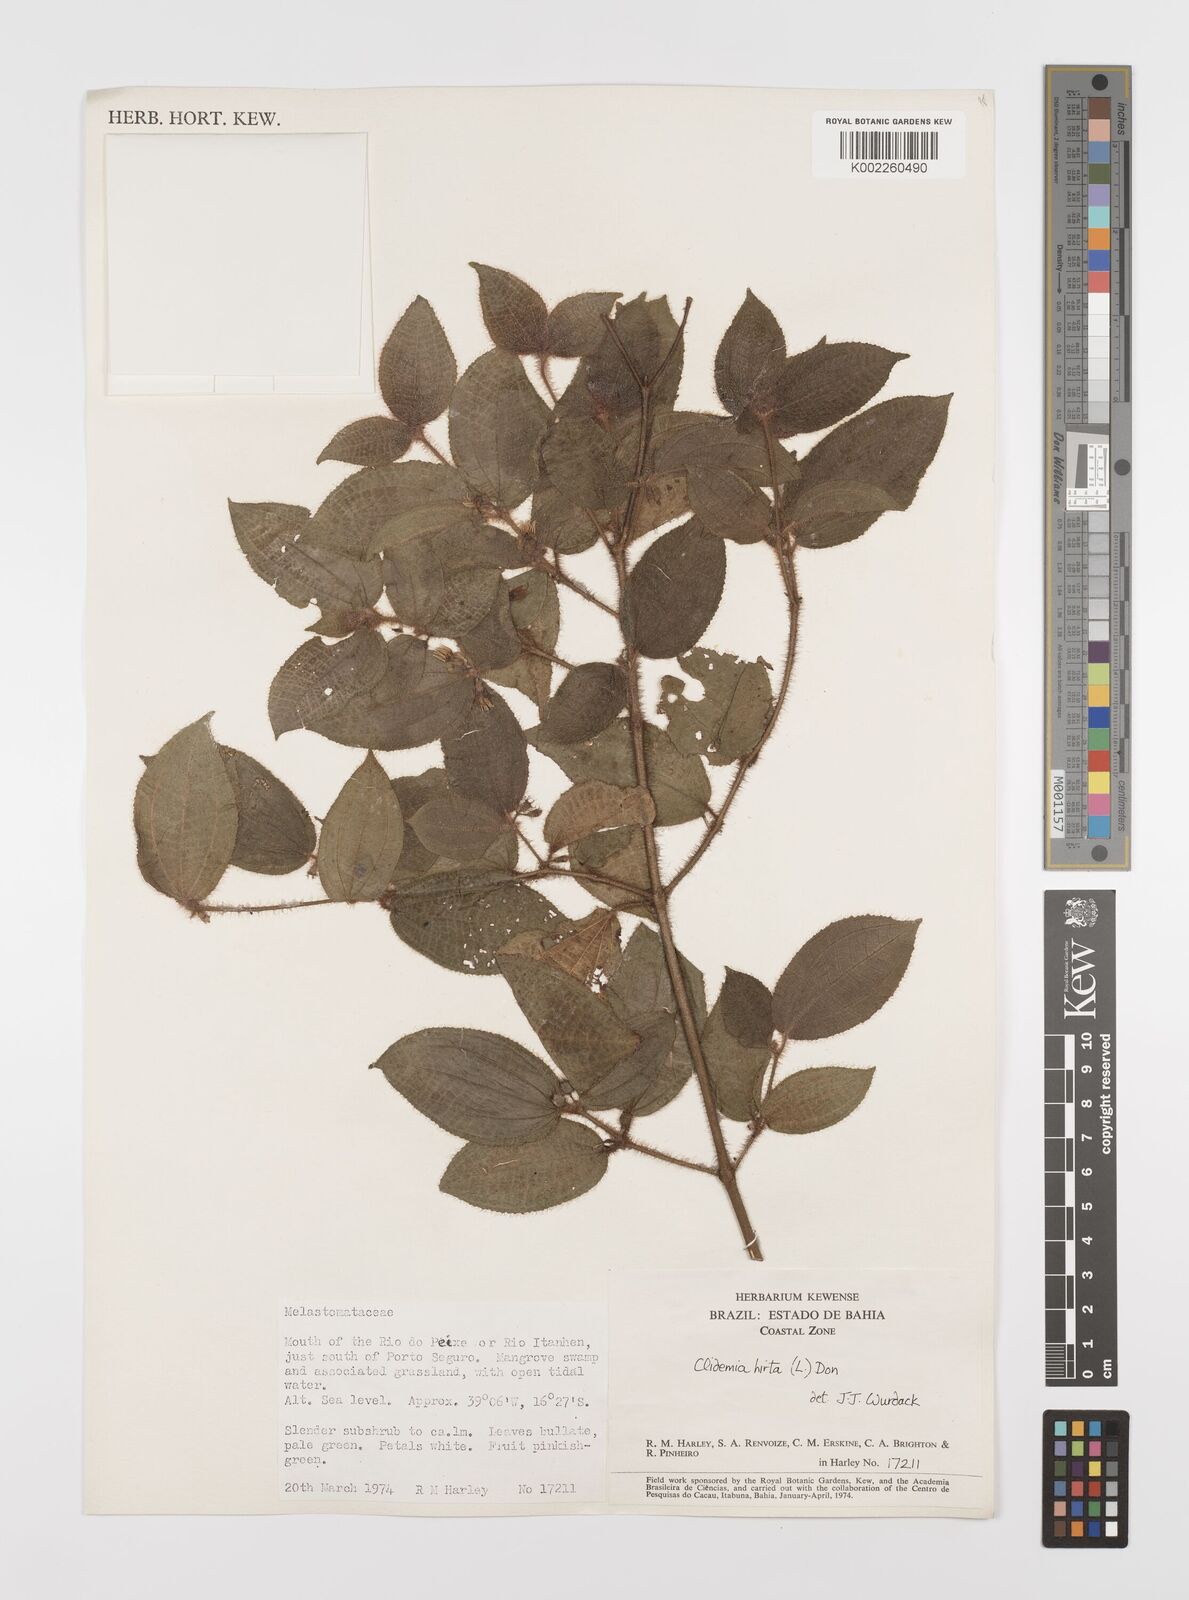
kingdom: Plantae
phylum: Tracheophyta
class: Magnoliopsida
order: Myrtales
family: Melastomataceae
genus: Miconia
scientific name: Miconia crenata
